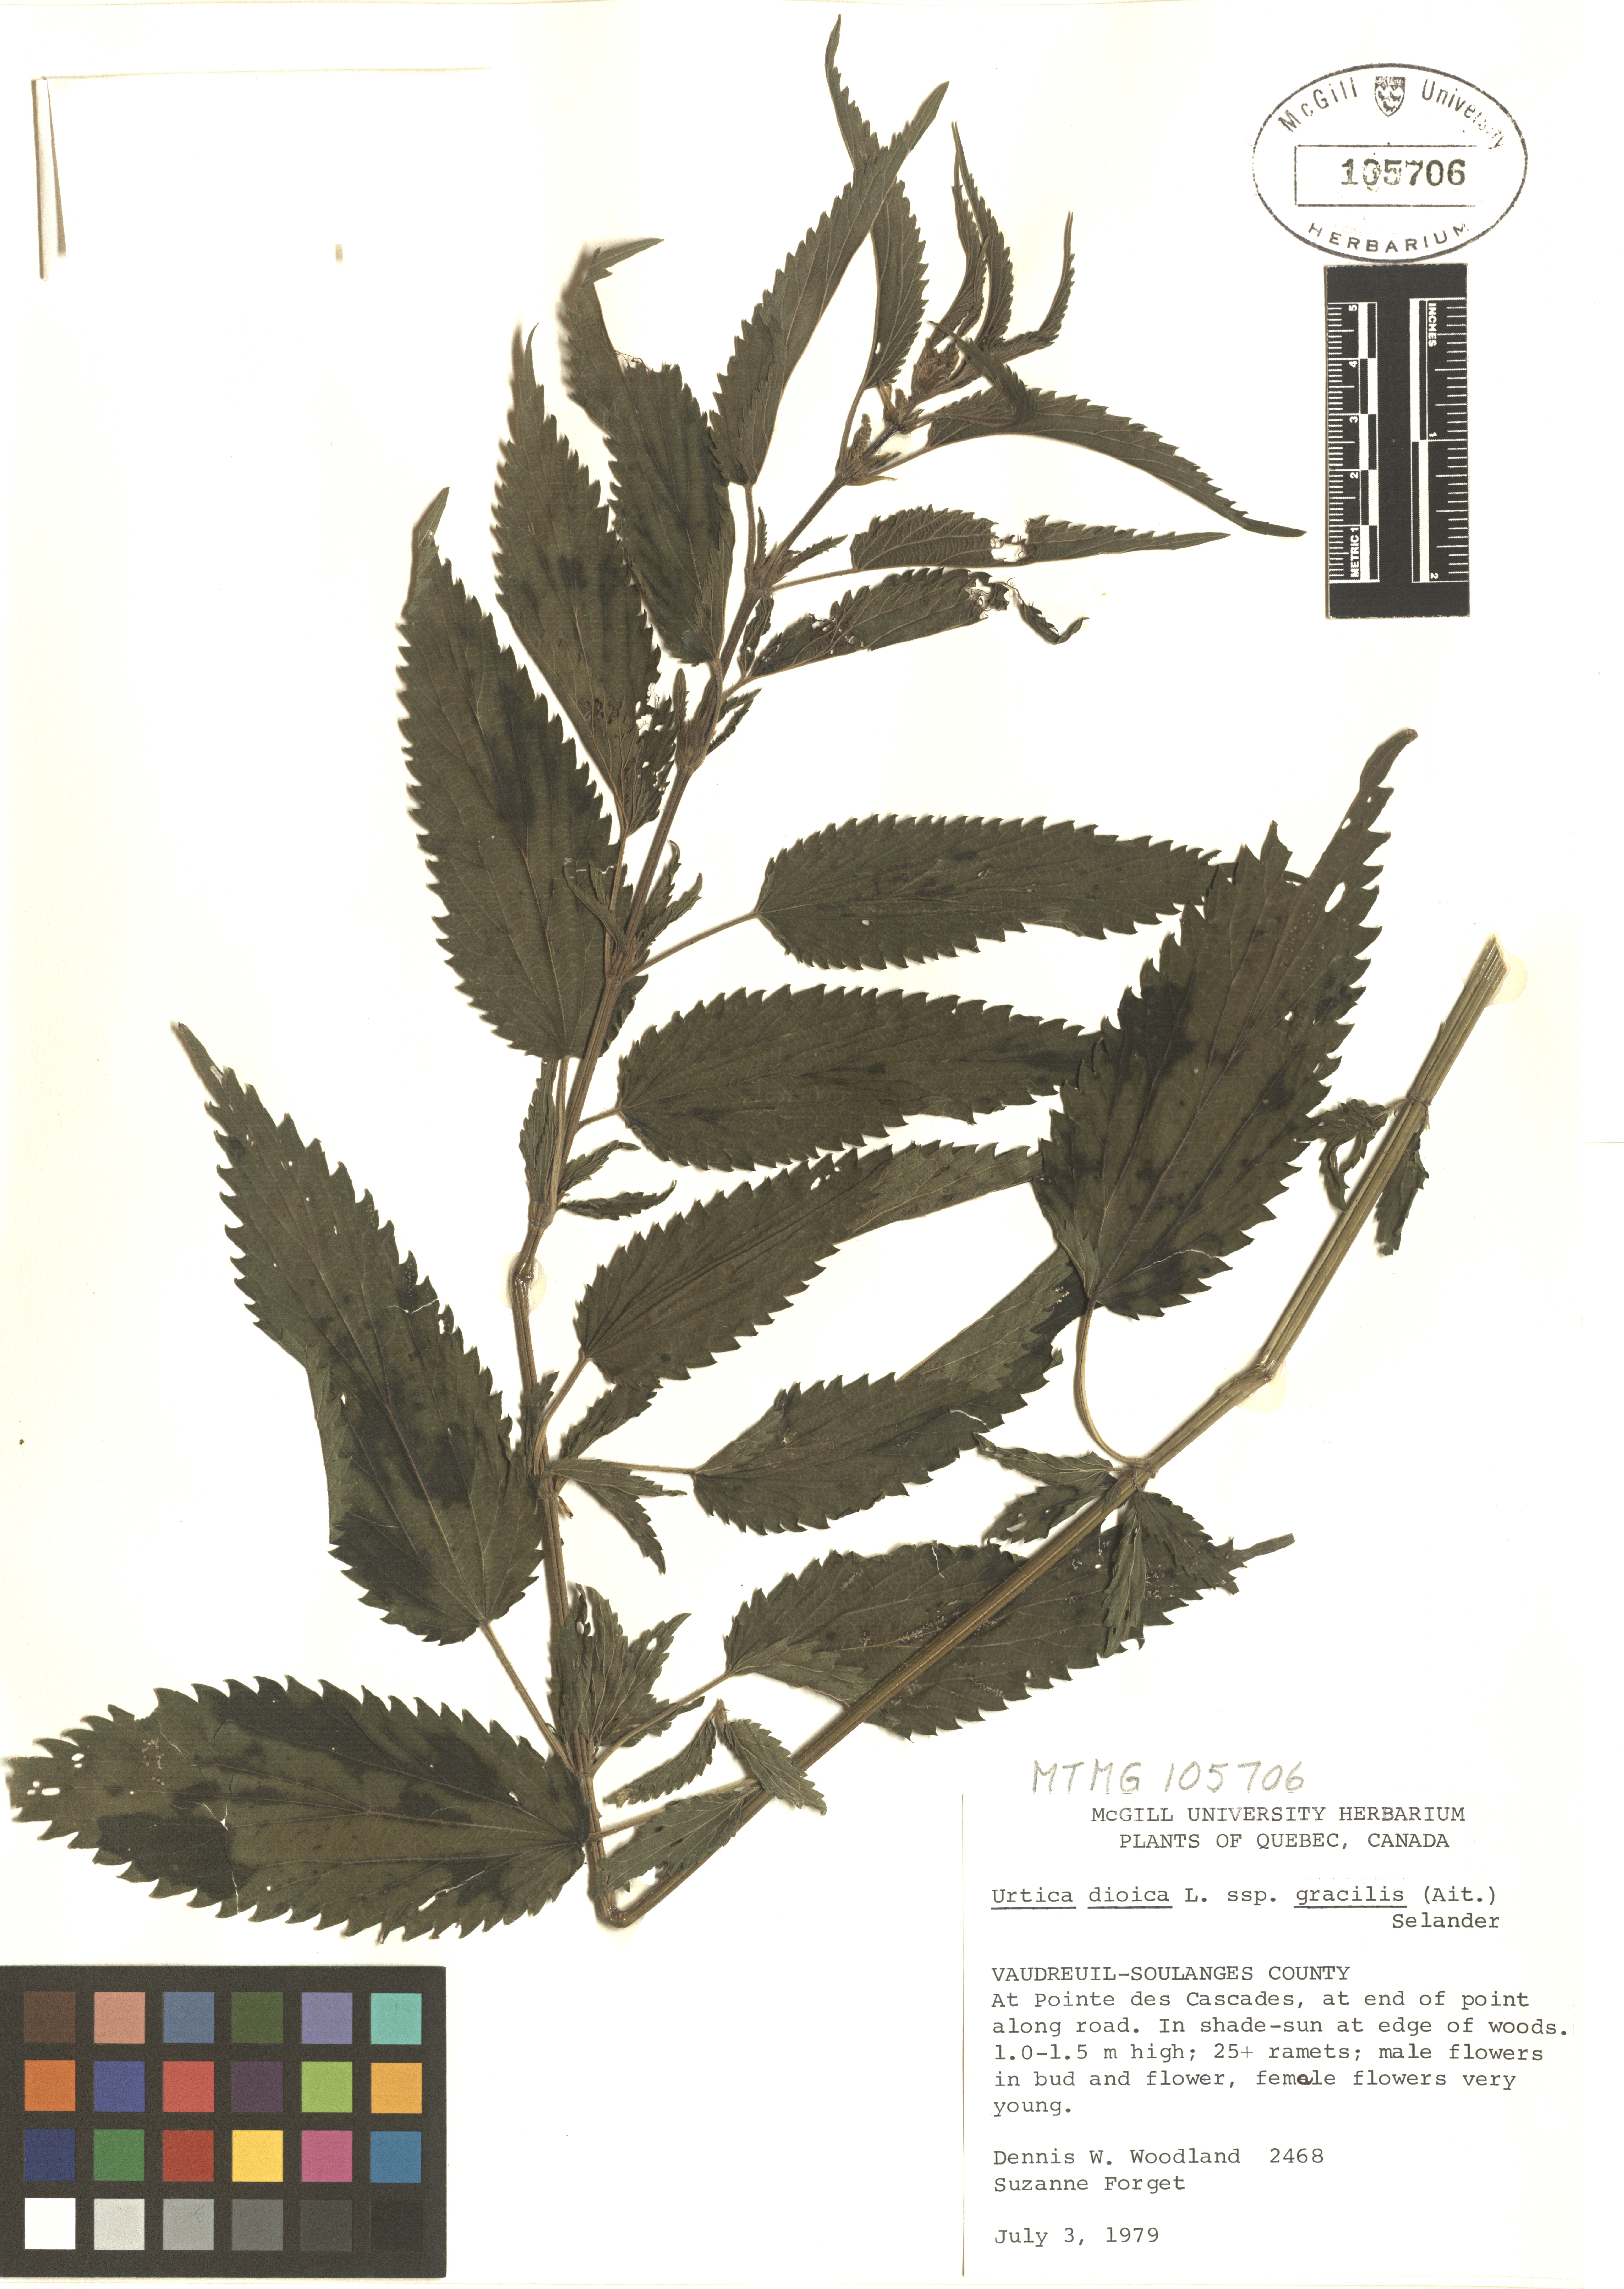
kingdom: Plantae
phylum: Tracheophyta
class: Magnoliopsida
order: Rosales
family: Urticaceae
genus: Urtica
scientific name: Urtica gracilis
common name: Slender stinging nettle
